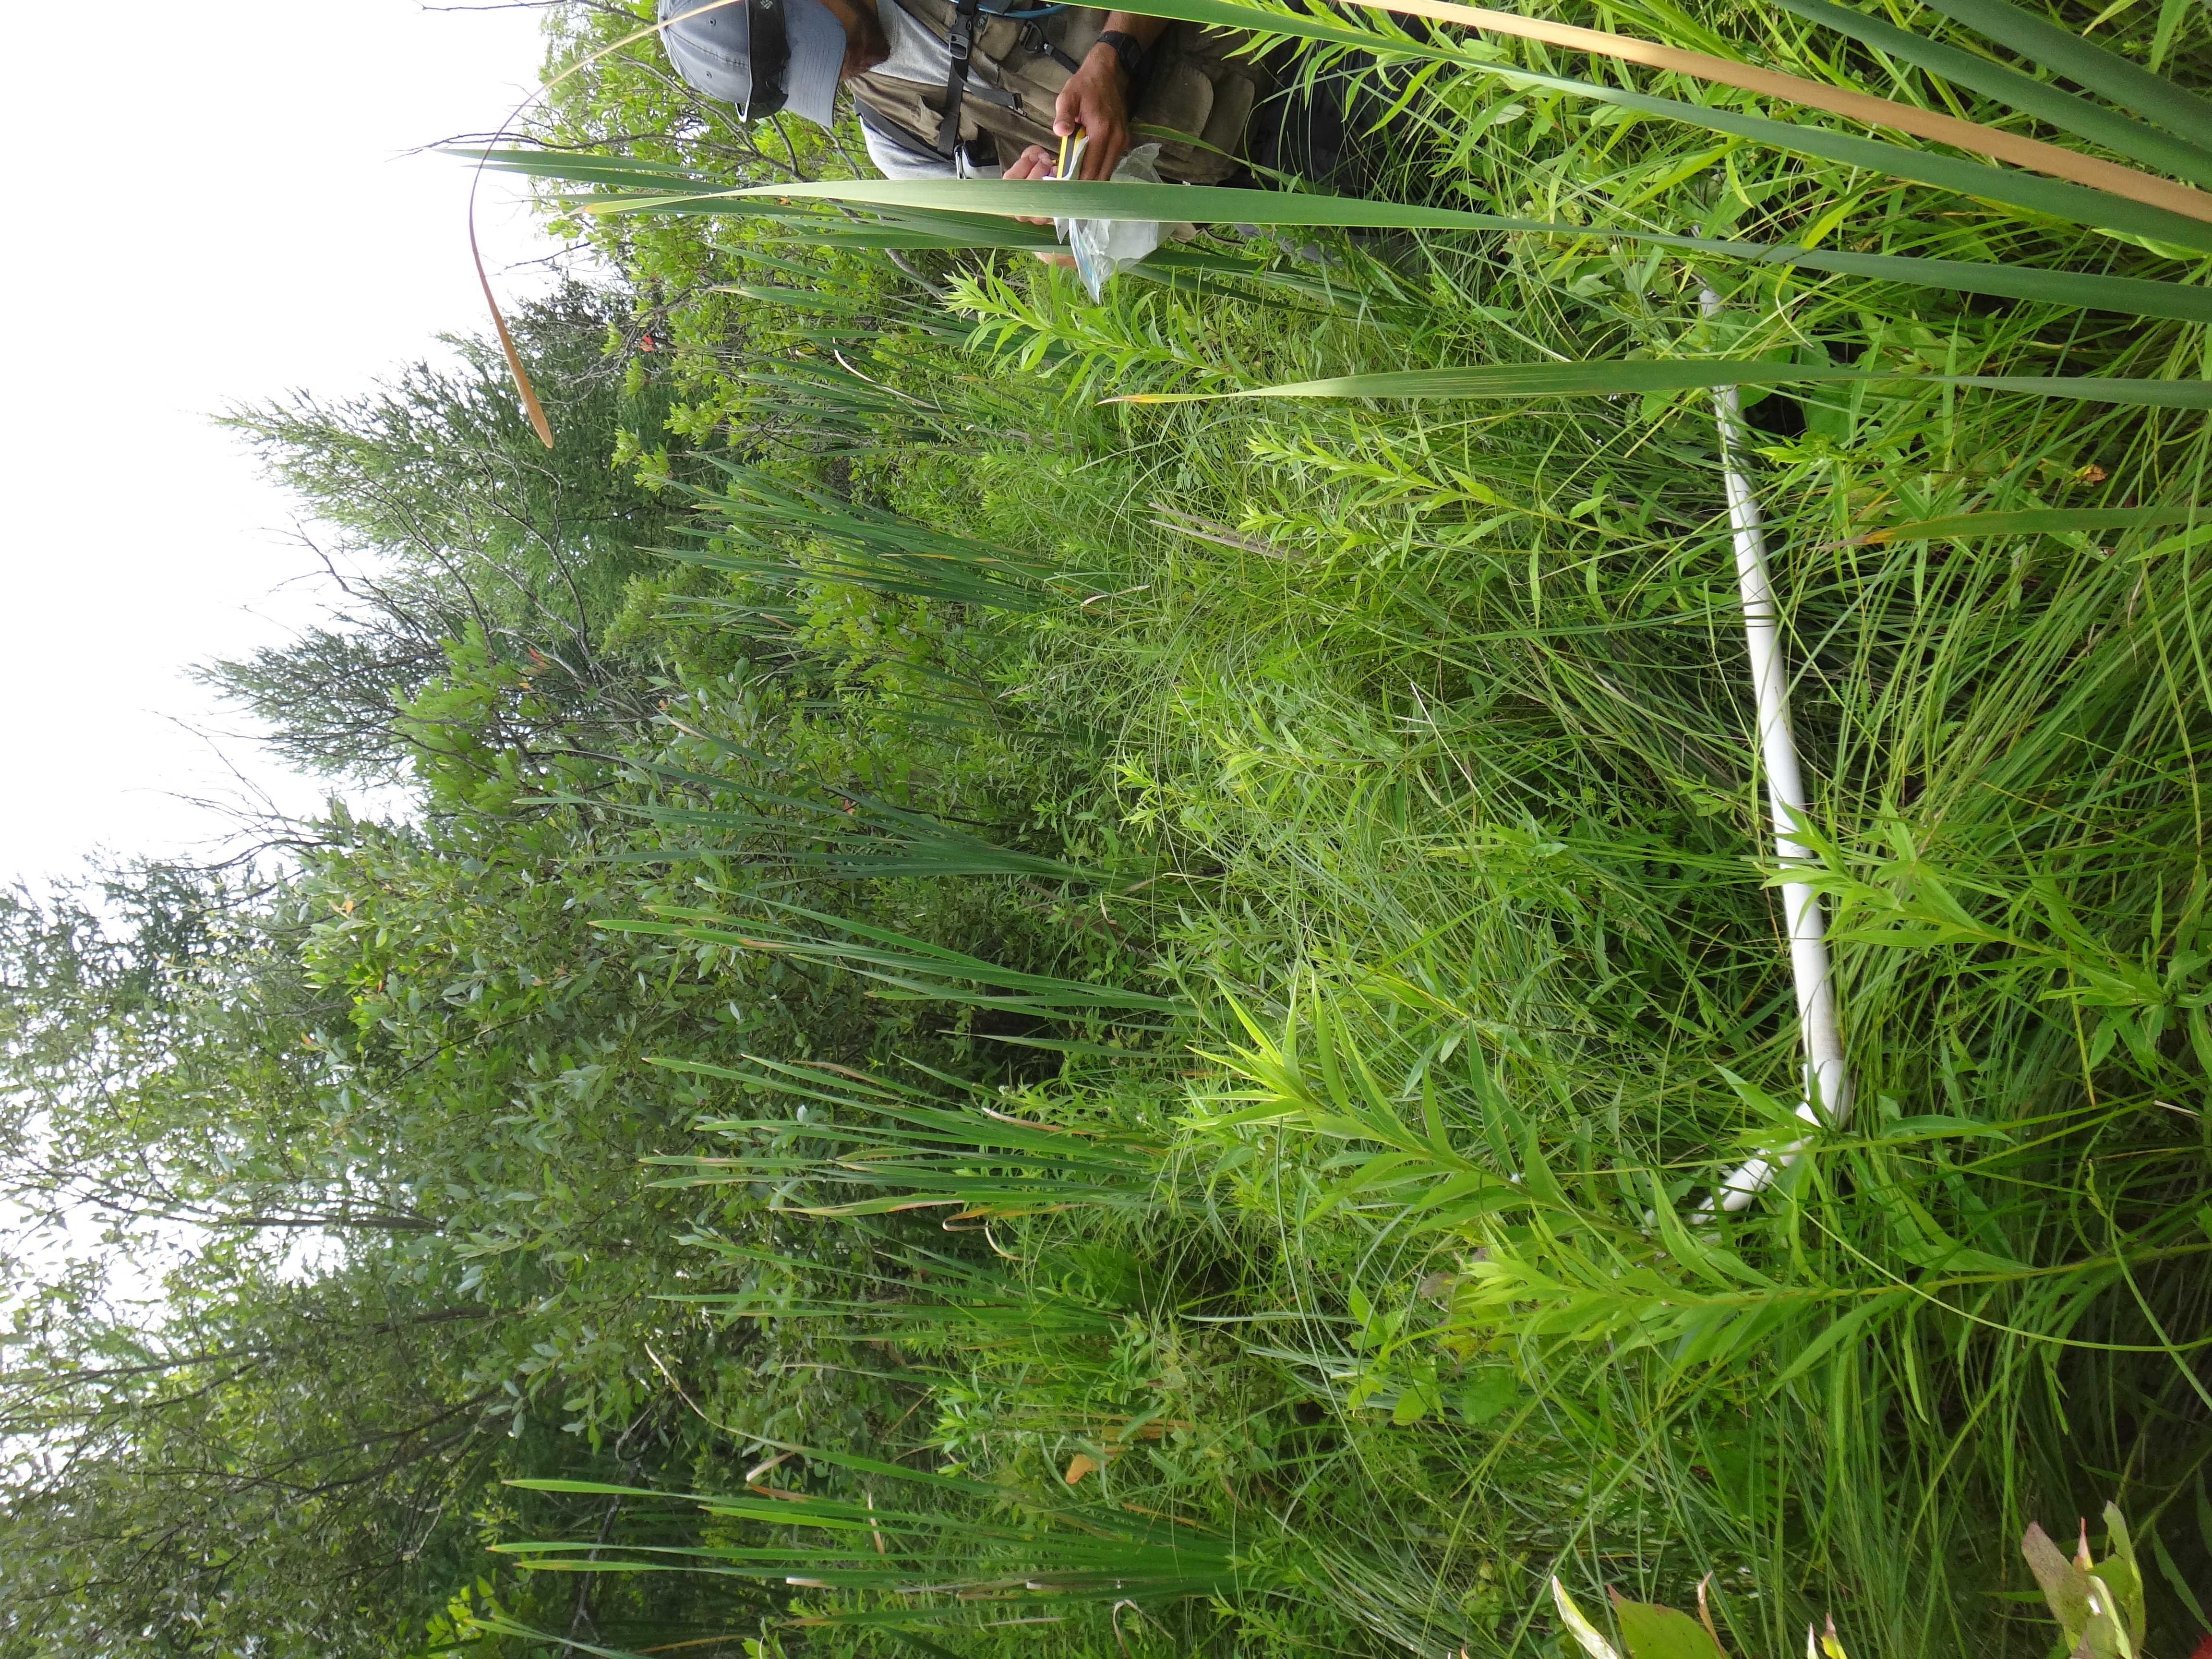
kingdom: Plantae
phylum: Tracheophyta
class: Magnoliopsida
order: Asterales
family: Asteraceae
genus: Doellingeria
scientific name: Doellingeria umbellata
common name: Flat-top white aster
